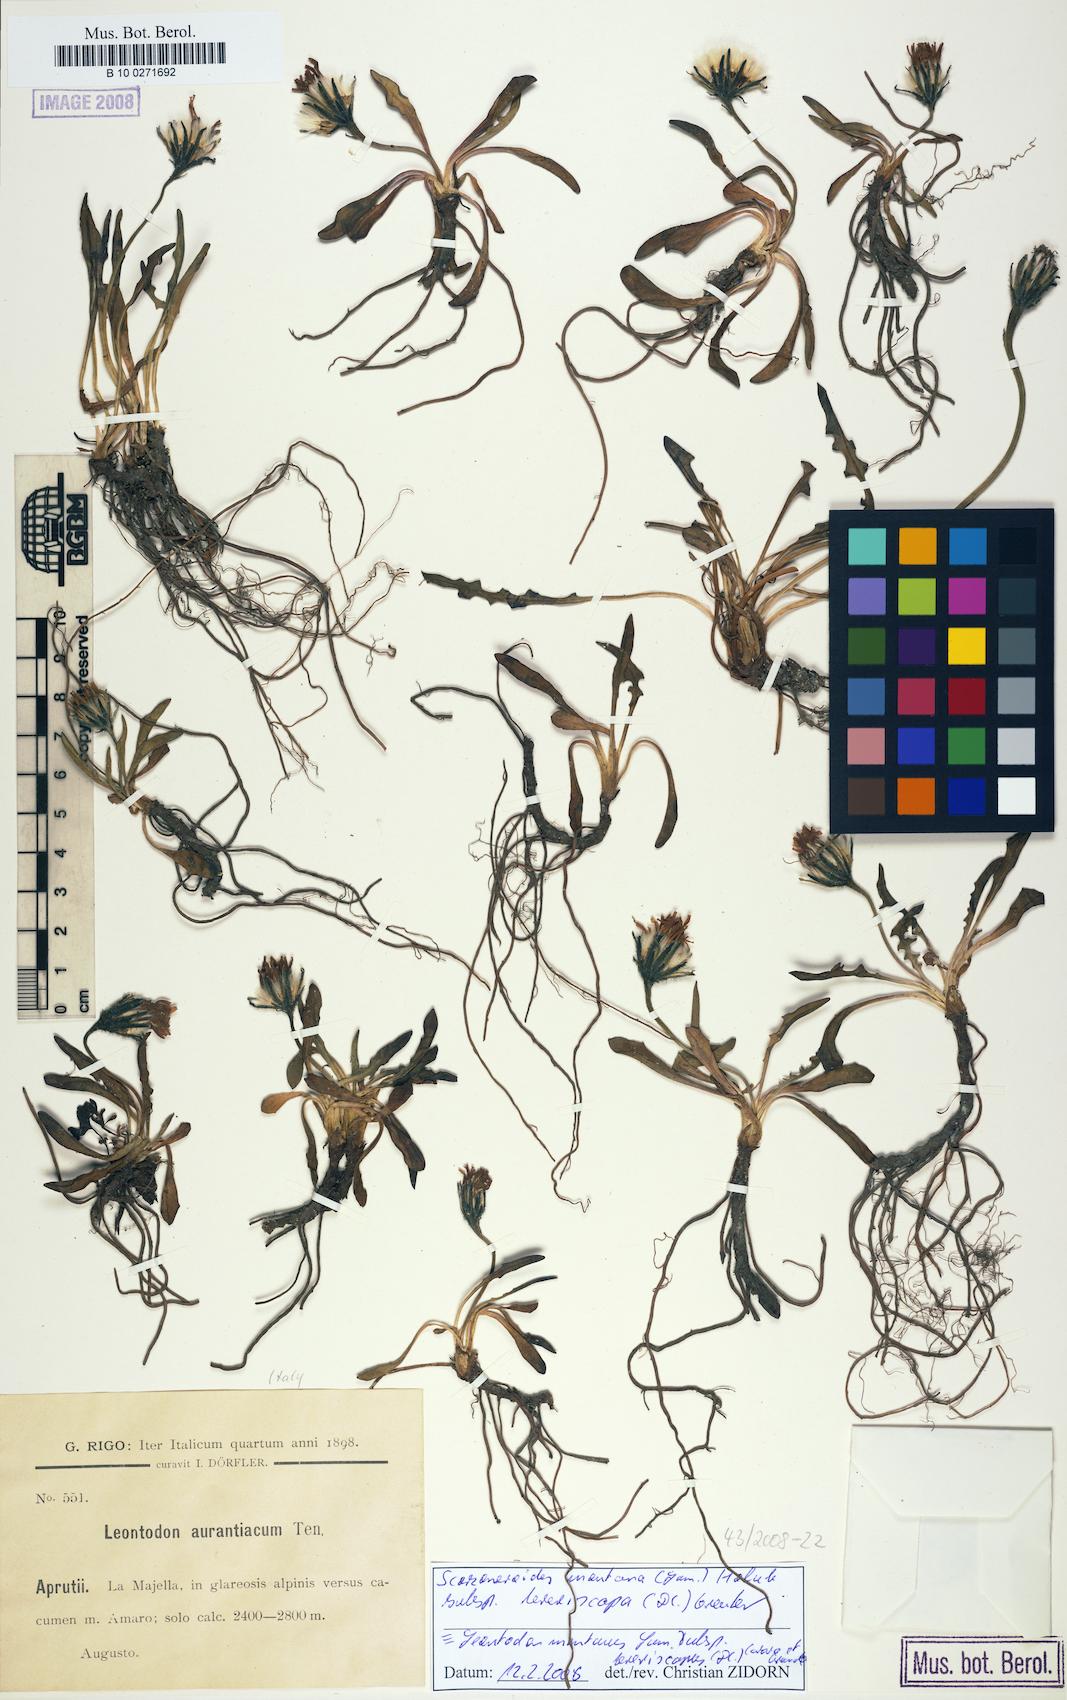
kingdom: Plantae
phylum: Tracheophyta
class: Magnoliopsida
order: Asterales
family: Asteraceae
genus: Scorzoneroides
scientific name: Scorzoneroides montana
